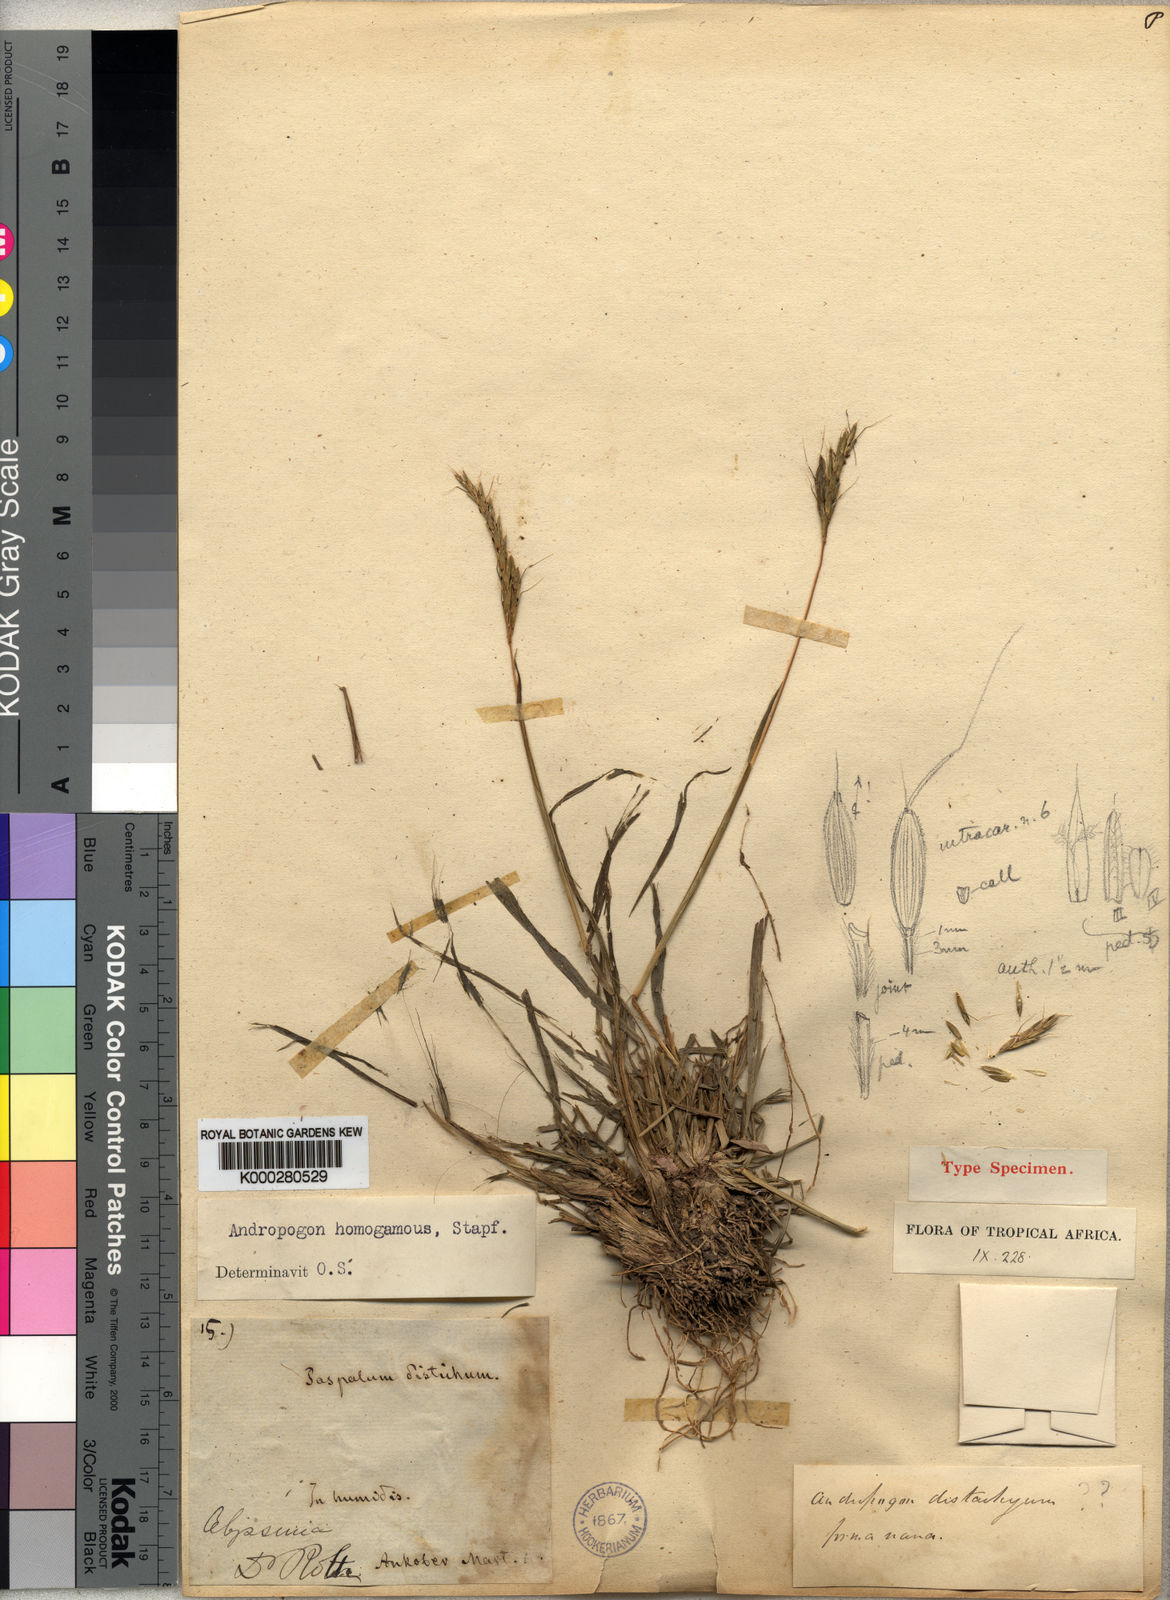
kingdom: Plantae
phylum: Tracheophyta
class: Liliopsida
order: Poales
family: Poaceae
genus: Andropogon
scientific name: Andropogon amethystinus
